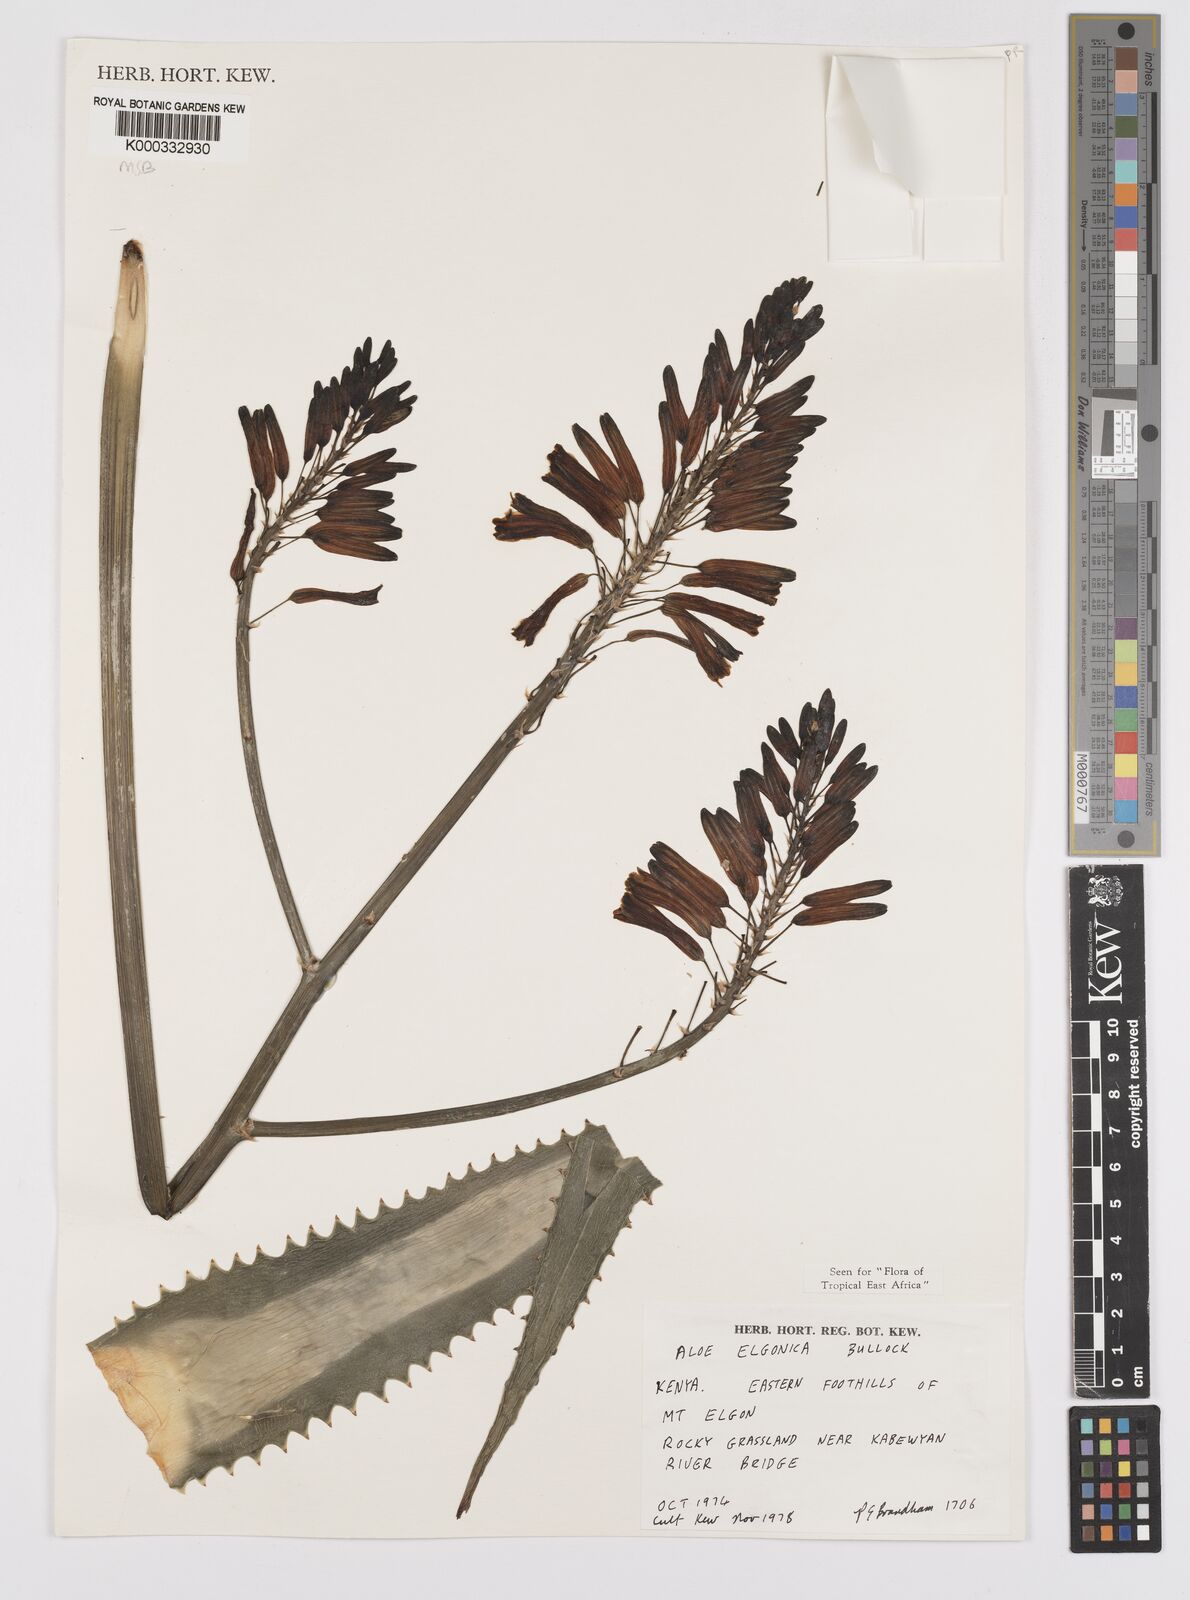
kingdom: Plantae
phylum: Tracheophyta
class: Liliopsida
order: Asparagales
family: Asphodelaceae
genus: Aloe
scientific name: Aloe elgonica
